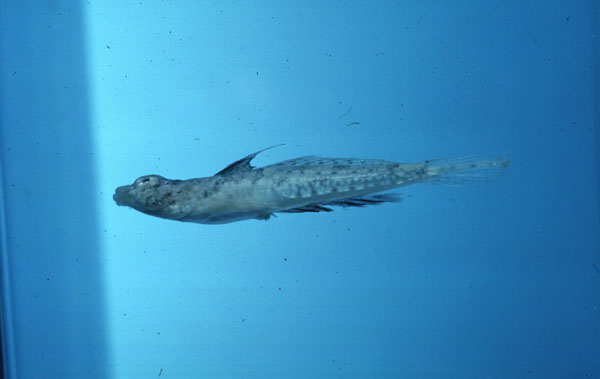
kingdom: Animalia
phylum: Chordata
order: Perciformes
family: Callionymidae
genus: Callionymus
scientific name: Callionymus
